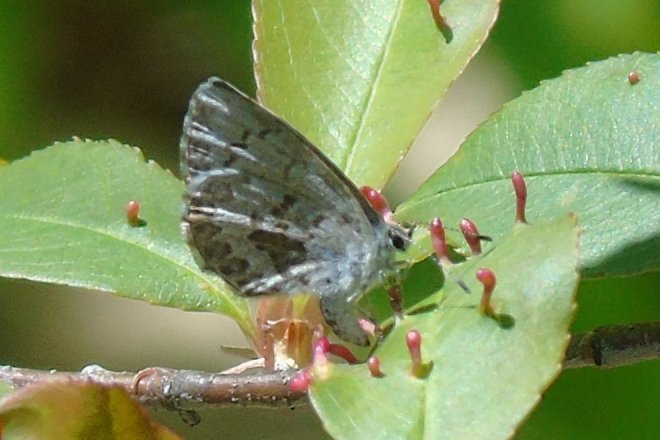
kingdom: Animalia
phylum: Arthropoda
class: Insecta
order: Lepidoptera
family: Lycaenidae
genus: Celastrina
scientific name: Celastrina lucia
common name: Northern Spring Azure
